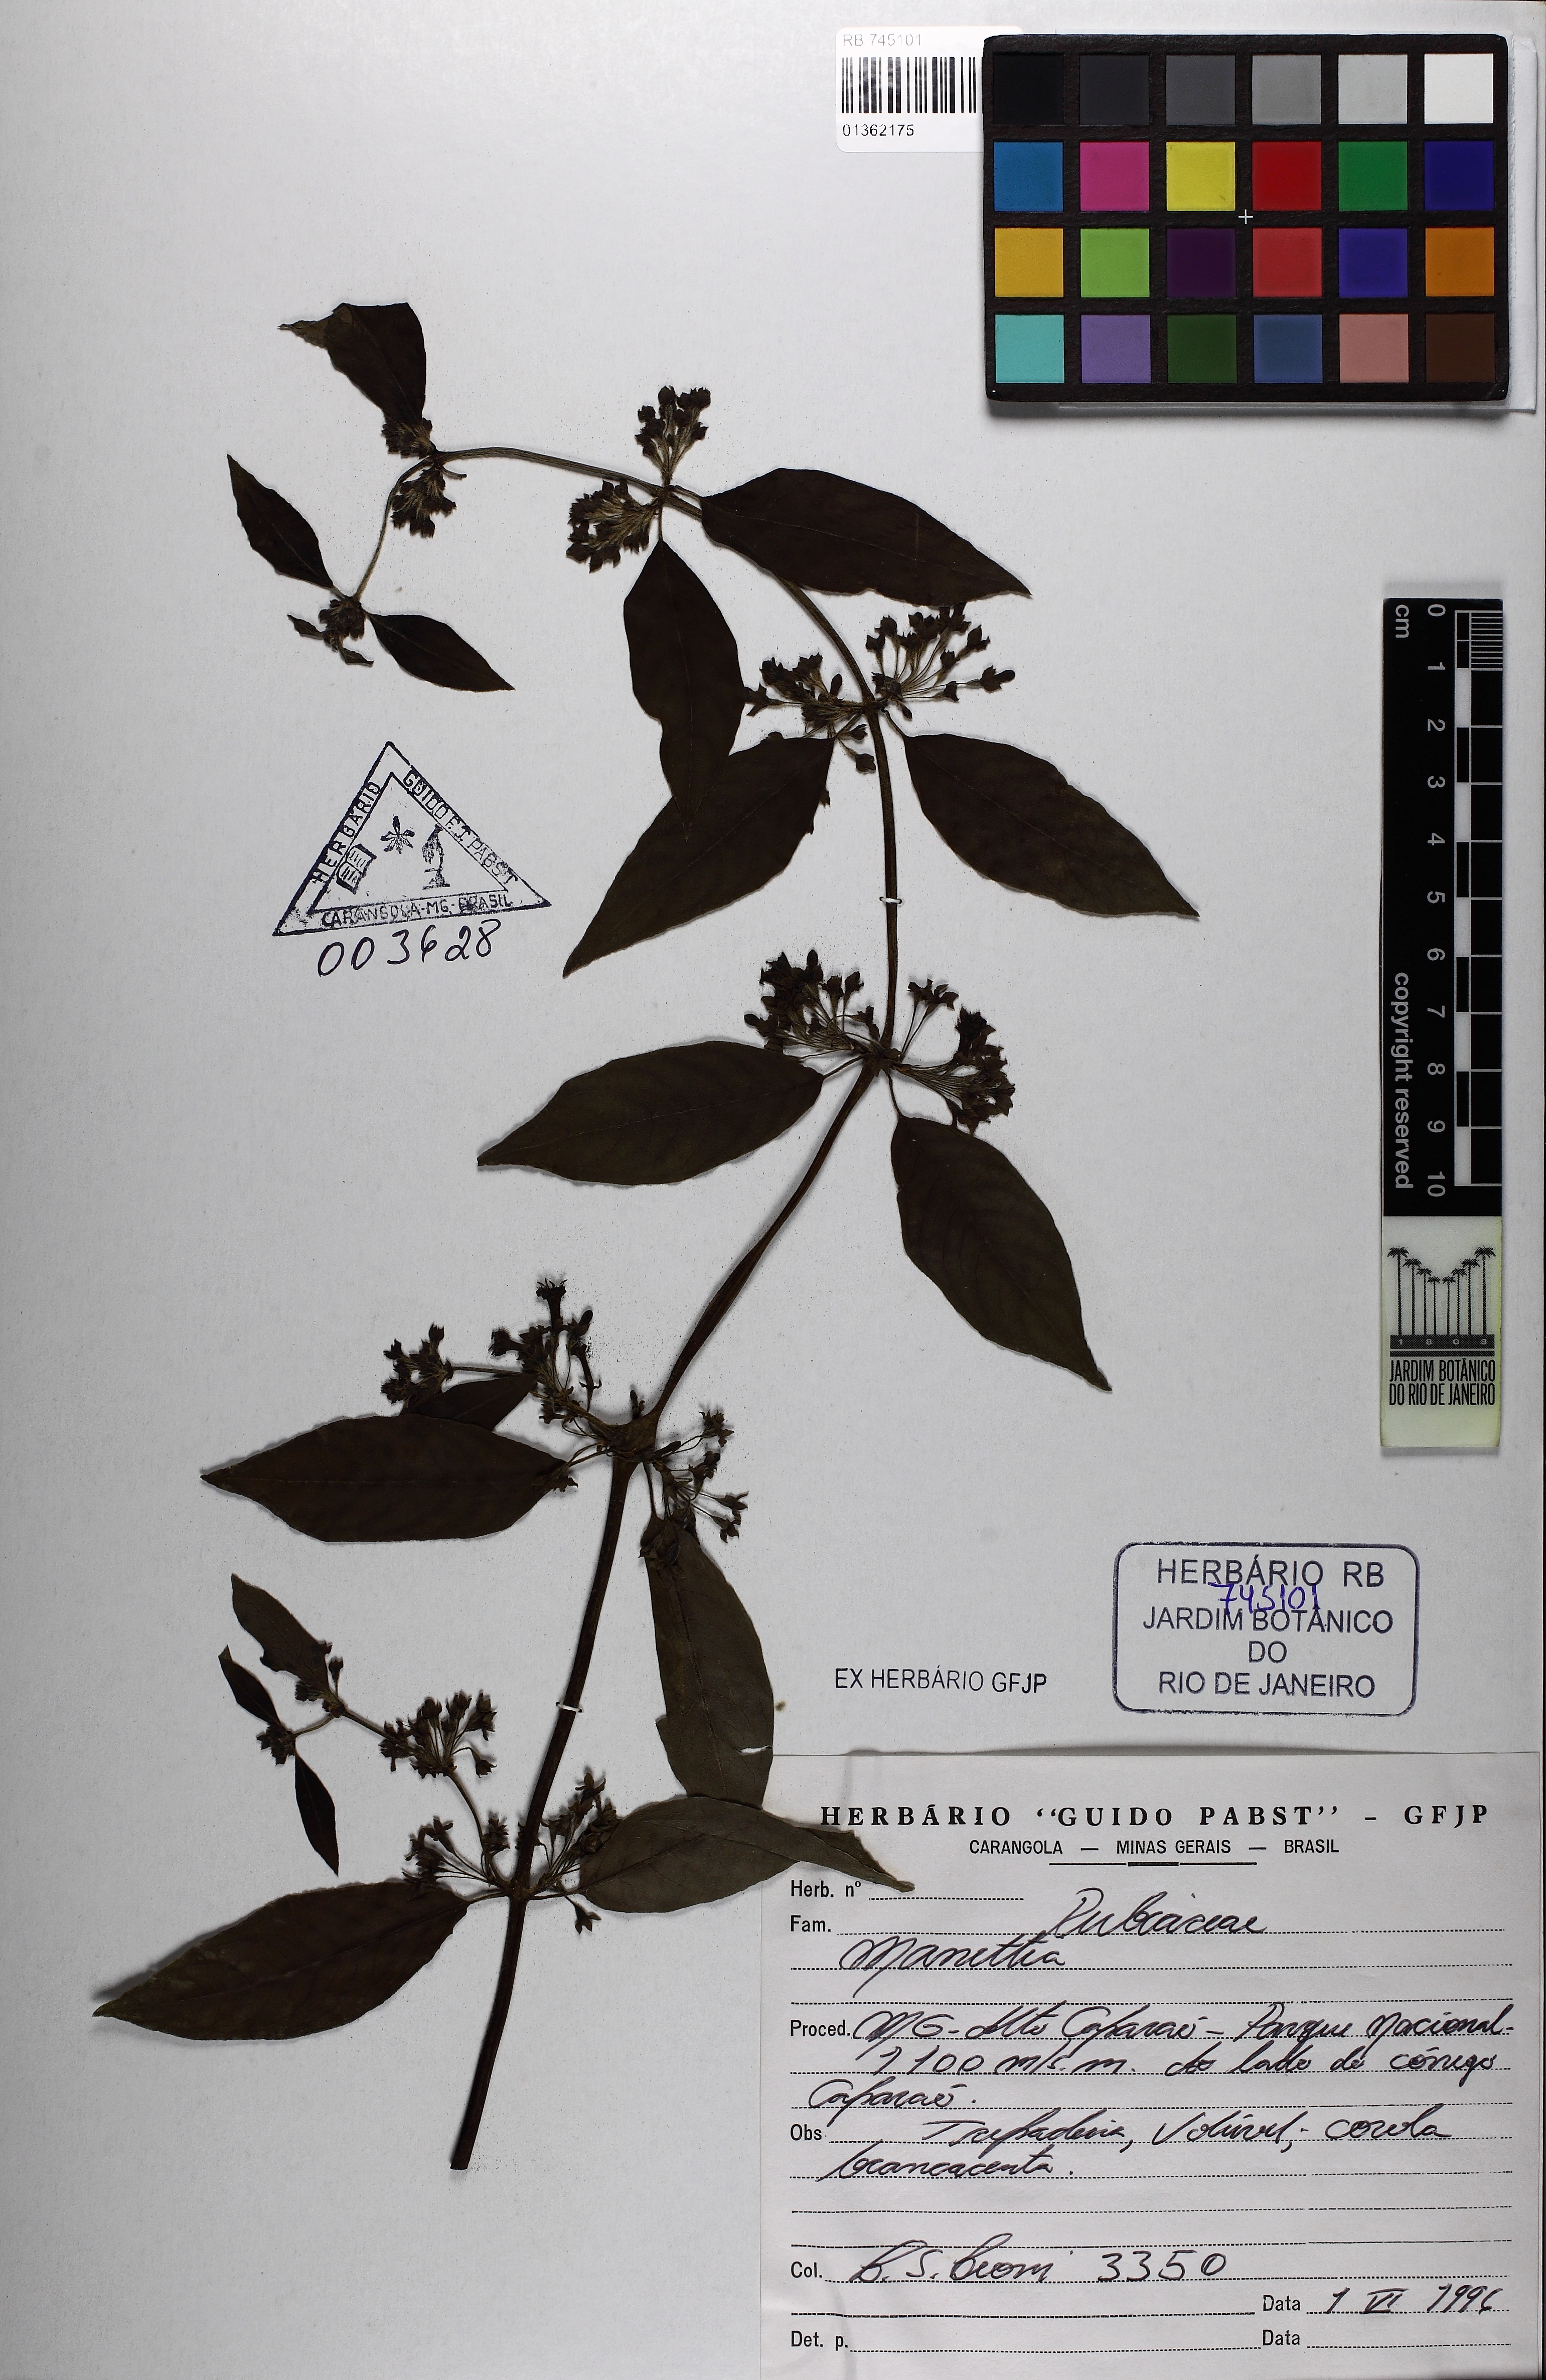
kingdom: Plantae
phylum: Tracheophyta
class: Magnoliopsida
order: Gentianales
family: Rubiaceae
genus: Manettia
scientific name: Manettia verticillata
